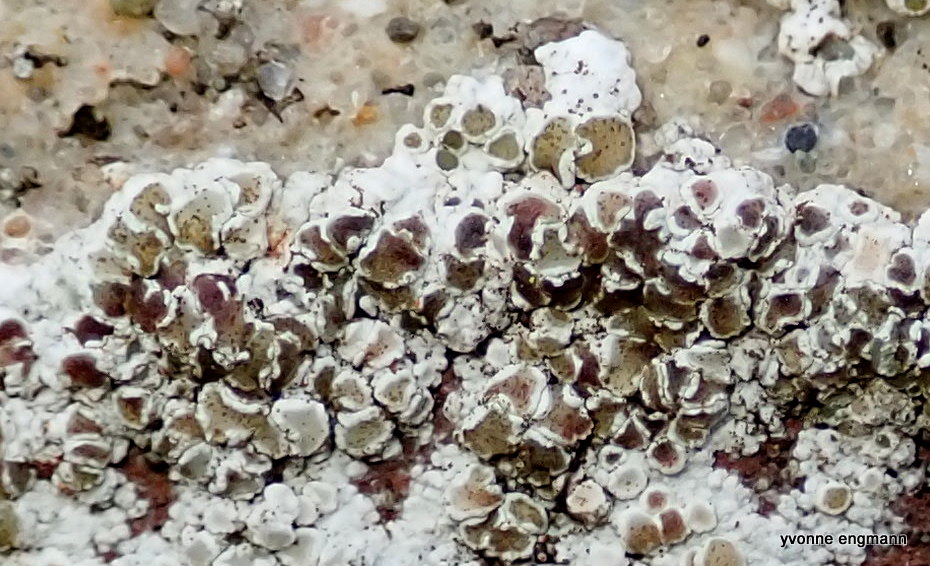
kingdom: Fungi
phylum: Ascomycota
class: Dothideomycetes
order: Pleosporales
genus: Vouauxiella
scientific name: Vouauxiella lichenicola
